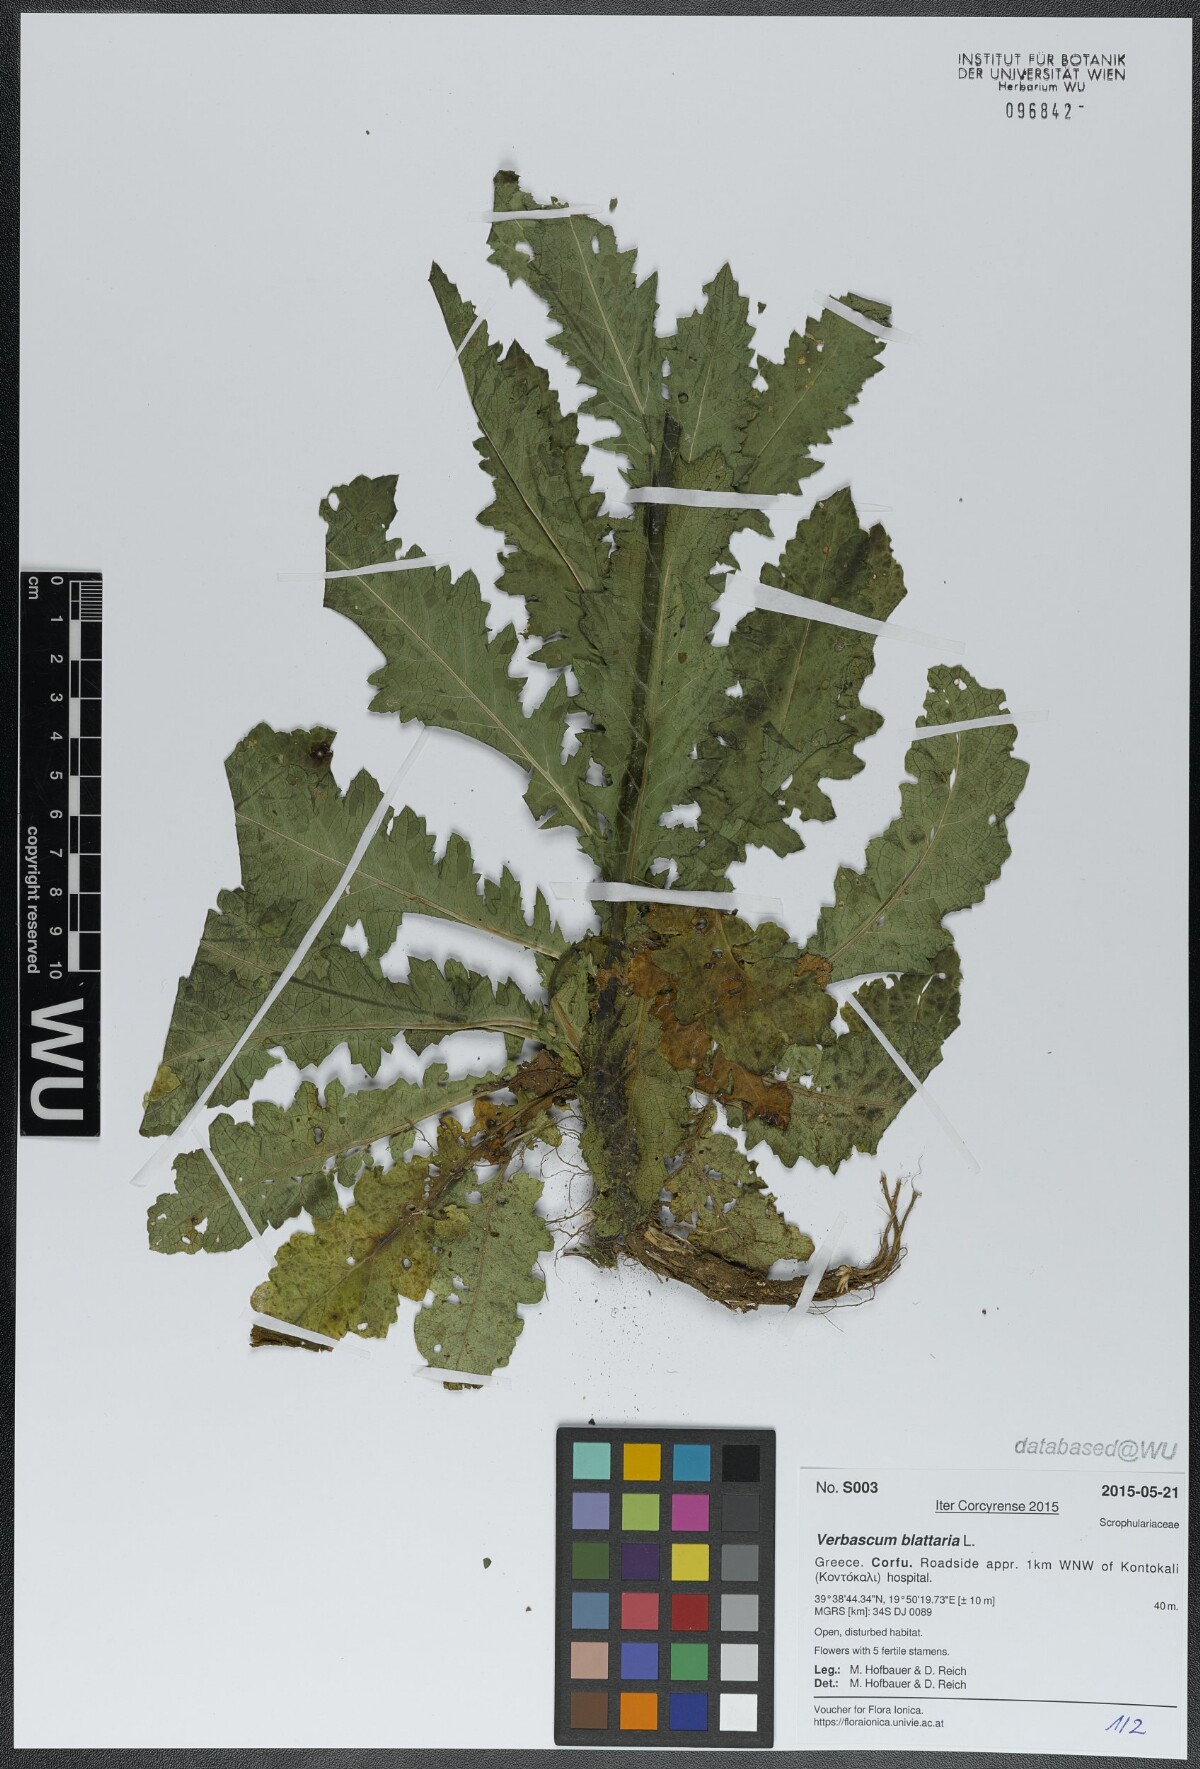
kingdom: Plantae
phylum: Tracheophyta
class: Magnoliopsida
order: Lamiales
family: Scrophulariaceae
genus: Verbascum
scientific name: Verbascum blattaria
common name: Moth mullein
